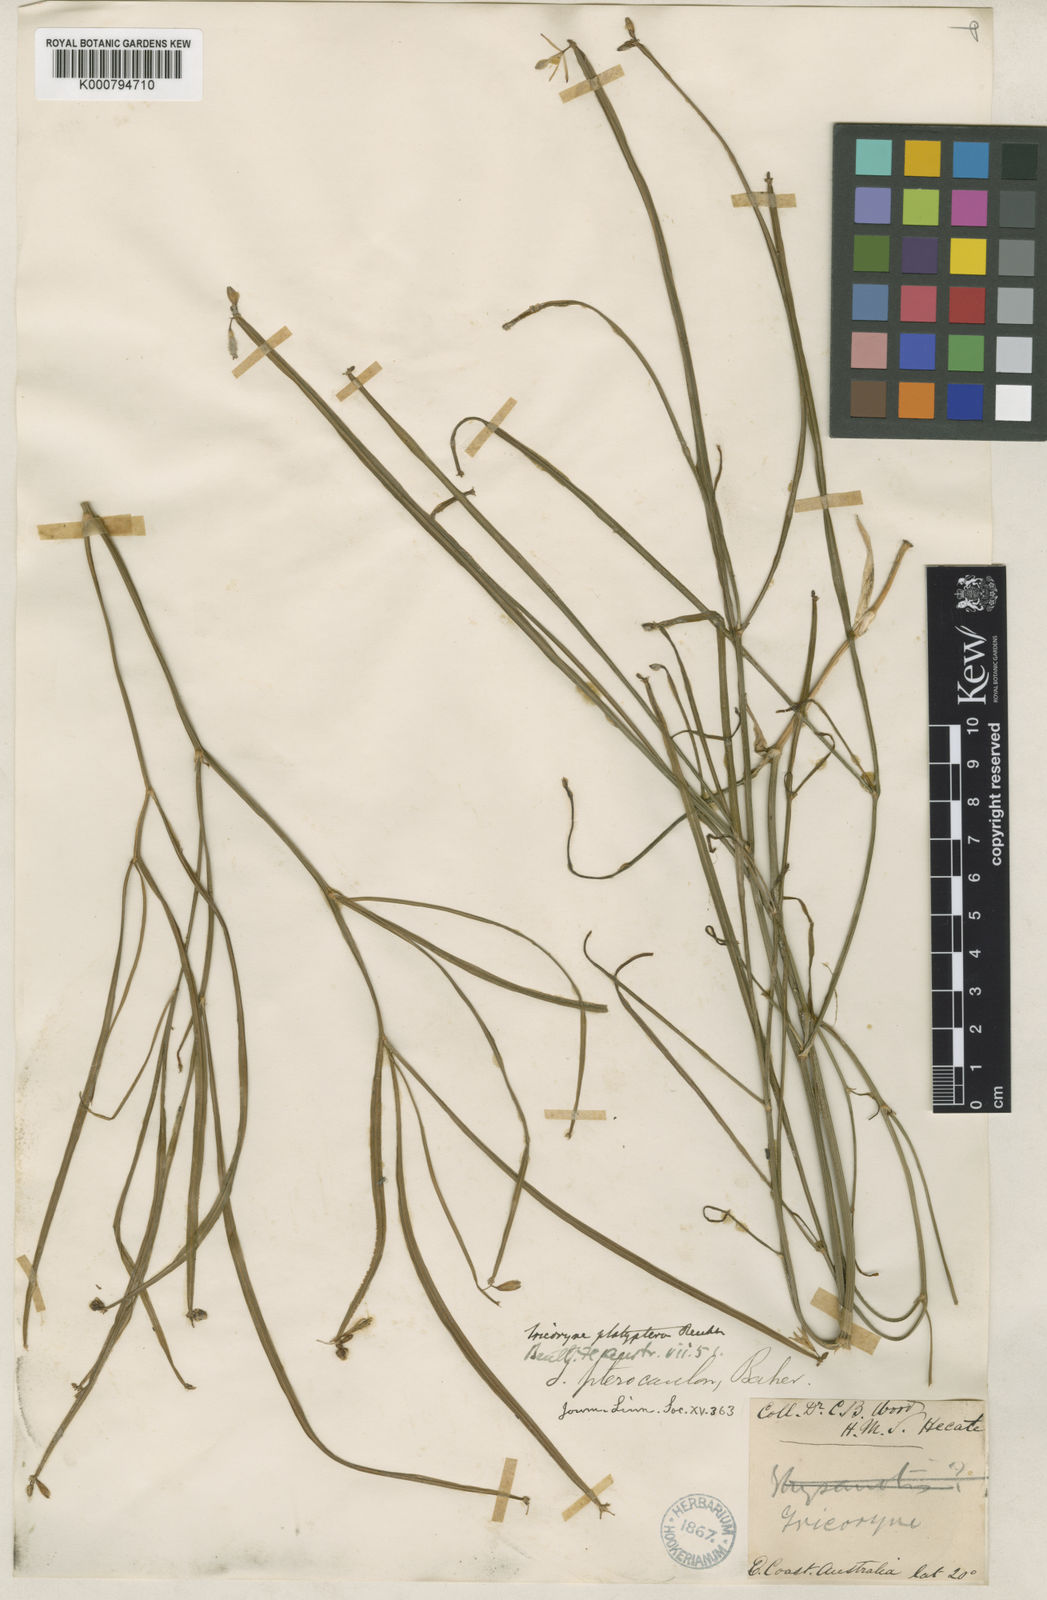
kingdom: Plantae
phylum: Tracheophyta
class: Liliopsida
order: Asparagales
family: Asphodelaceae
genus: Tricoryne
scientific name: Tricoryne platyptera
